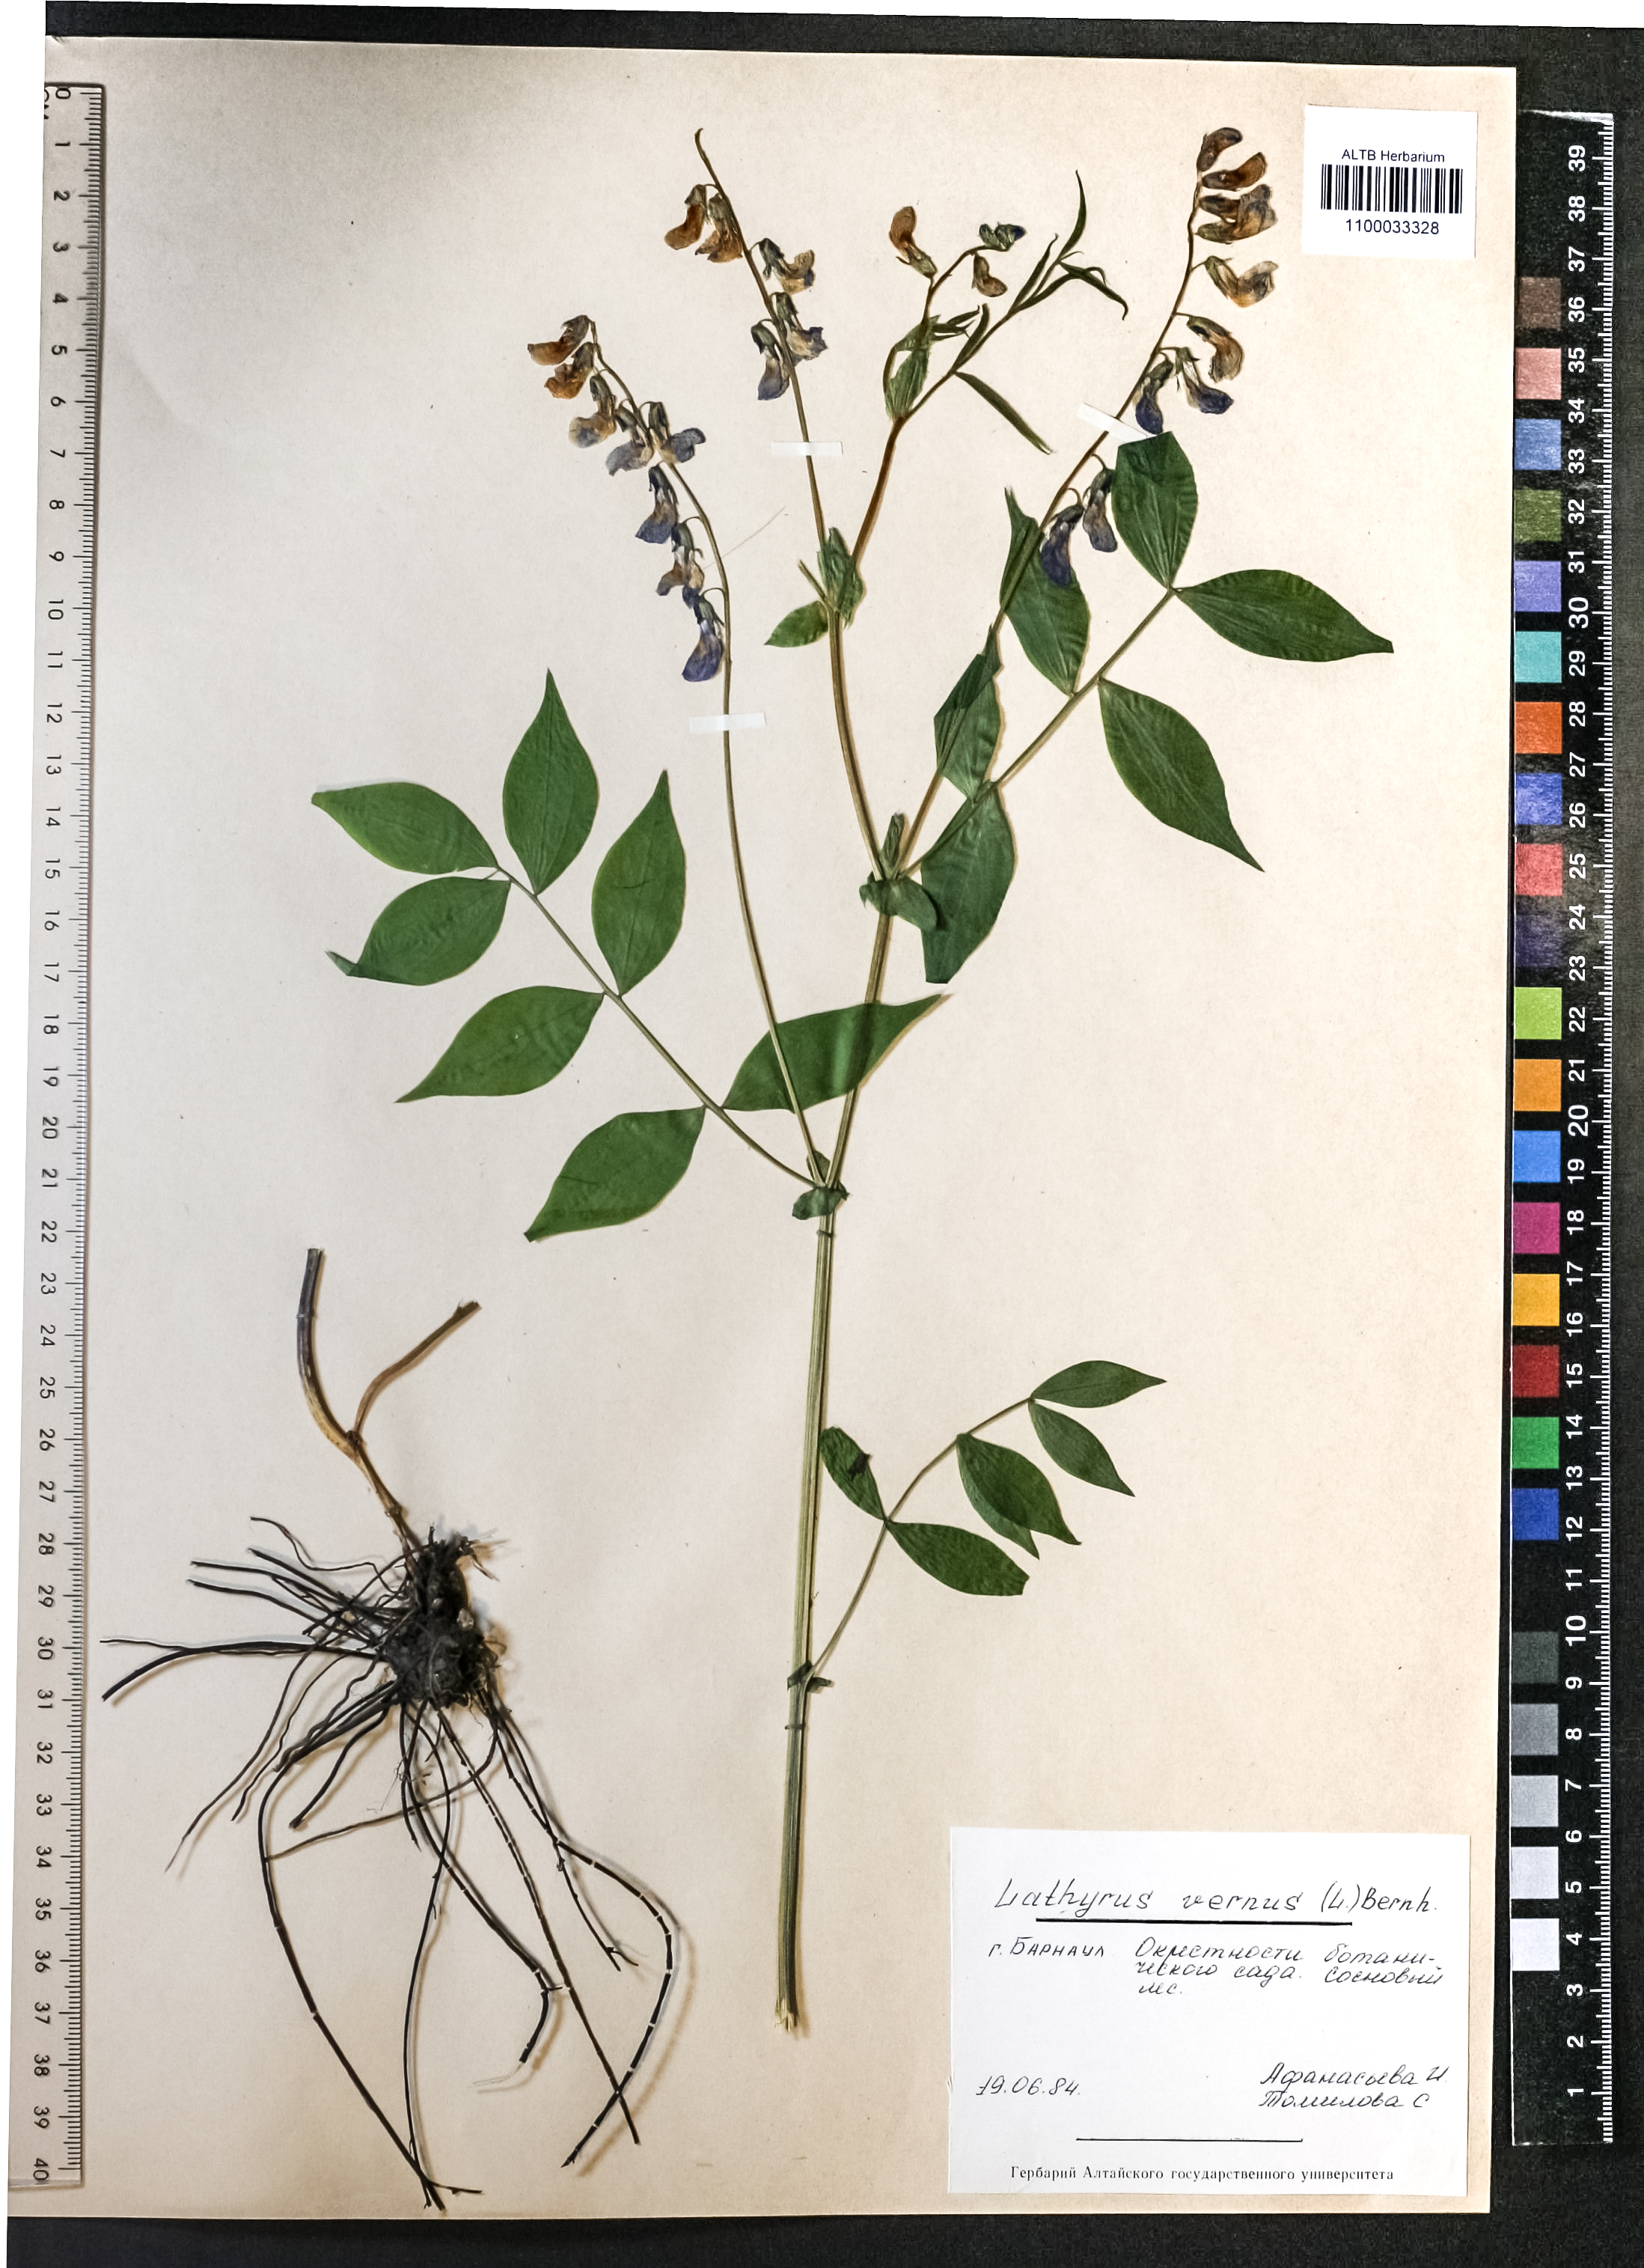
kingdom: Plantae
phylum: Tracheophyta
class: Magnoliopsida
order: Fabales
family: Fabaceae
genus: Lathyrus
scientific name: Lathyrus vernus
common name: Spring pea
